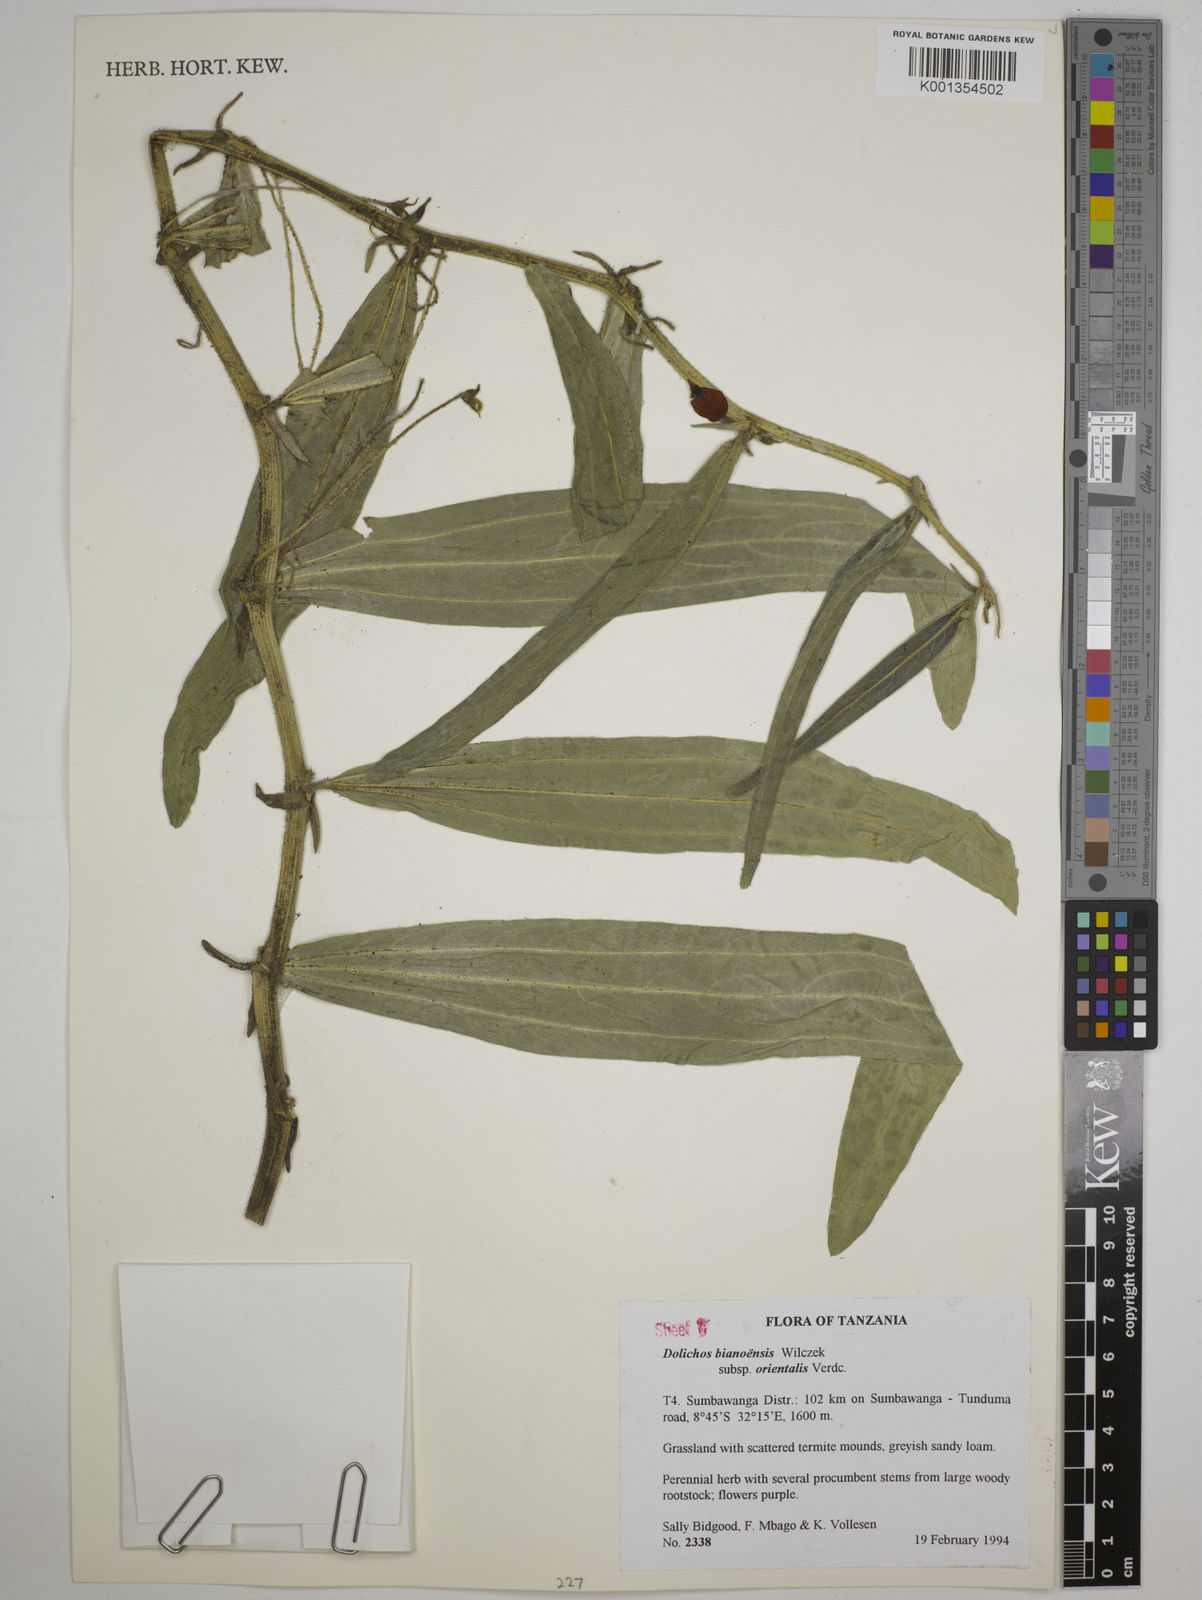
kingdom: Plantae
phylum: Tracheophyta
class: Magnoliopsida
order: Fabales
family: Fabaceae
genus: Dolichos
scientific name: Dolichos
